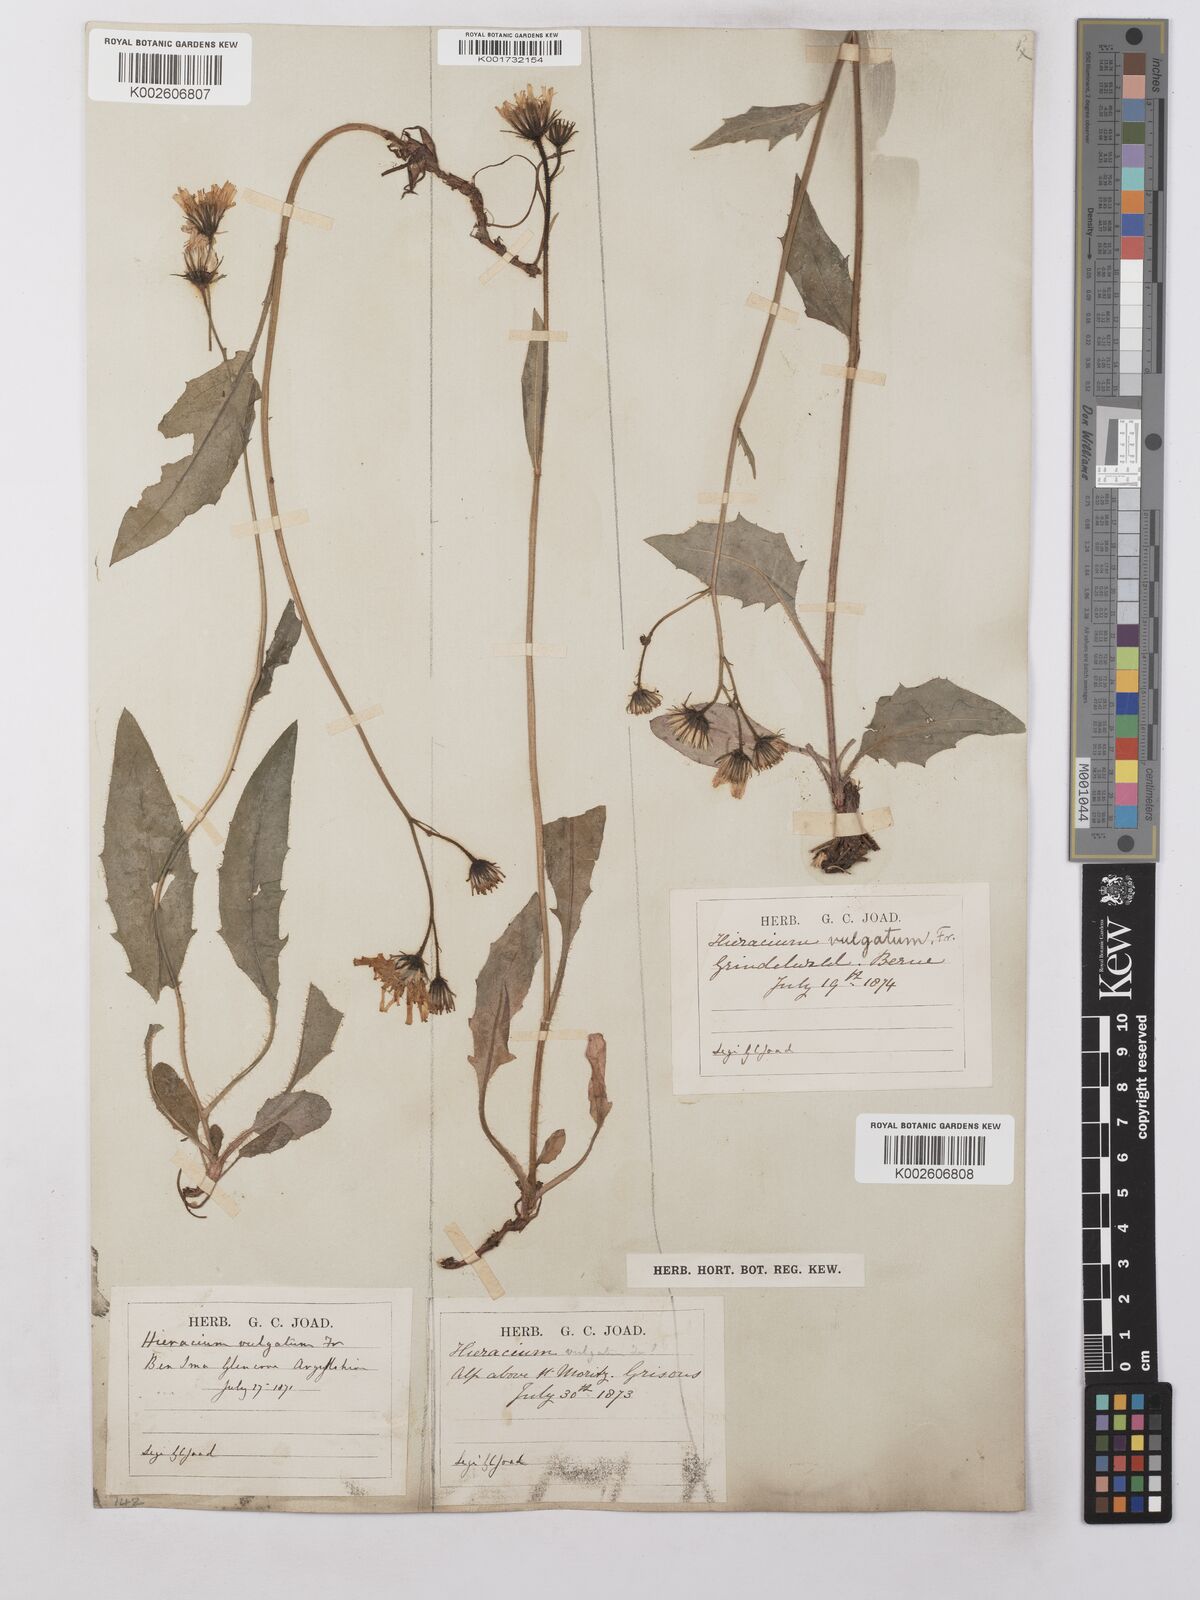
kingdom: Plantae
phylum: Tracheophyta
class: Magnoliopsida
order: Asterales
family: Asteraceae
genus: Hieracium
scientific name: Hieracium
